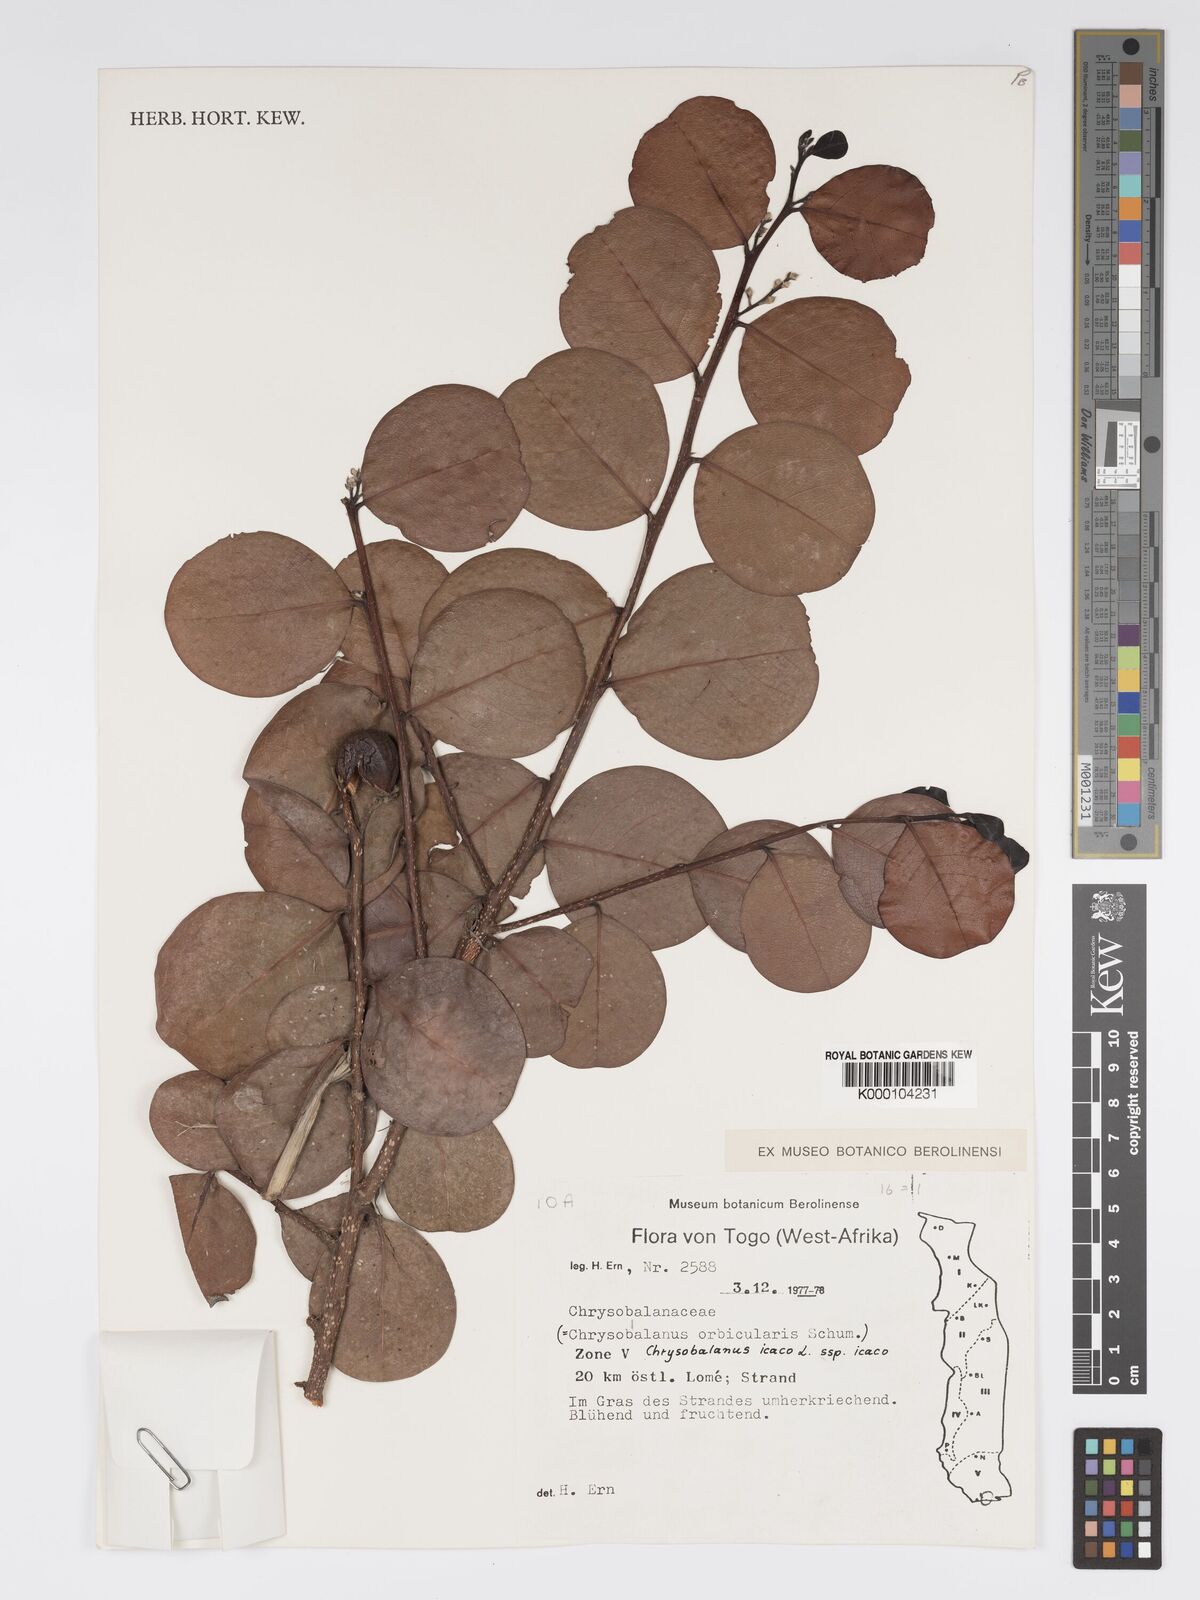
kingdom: Plantae
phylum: Tracheophyta
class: Magnoliopsida
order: Malpighiales
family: Chrysobalanaceae
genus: Chrysobalanus
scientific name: Chrysobalanus icaco
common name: Coco plum
